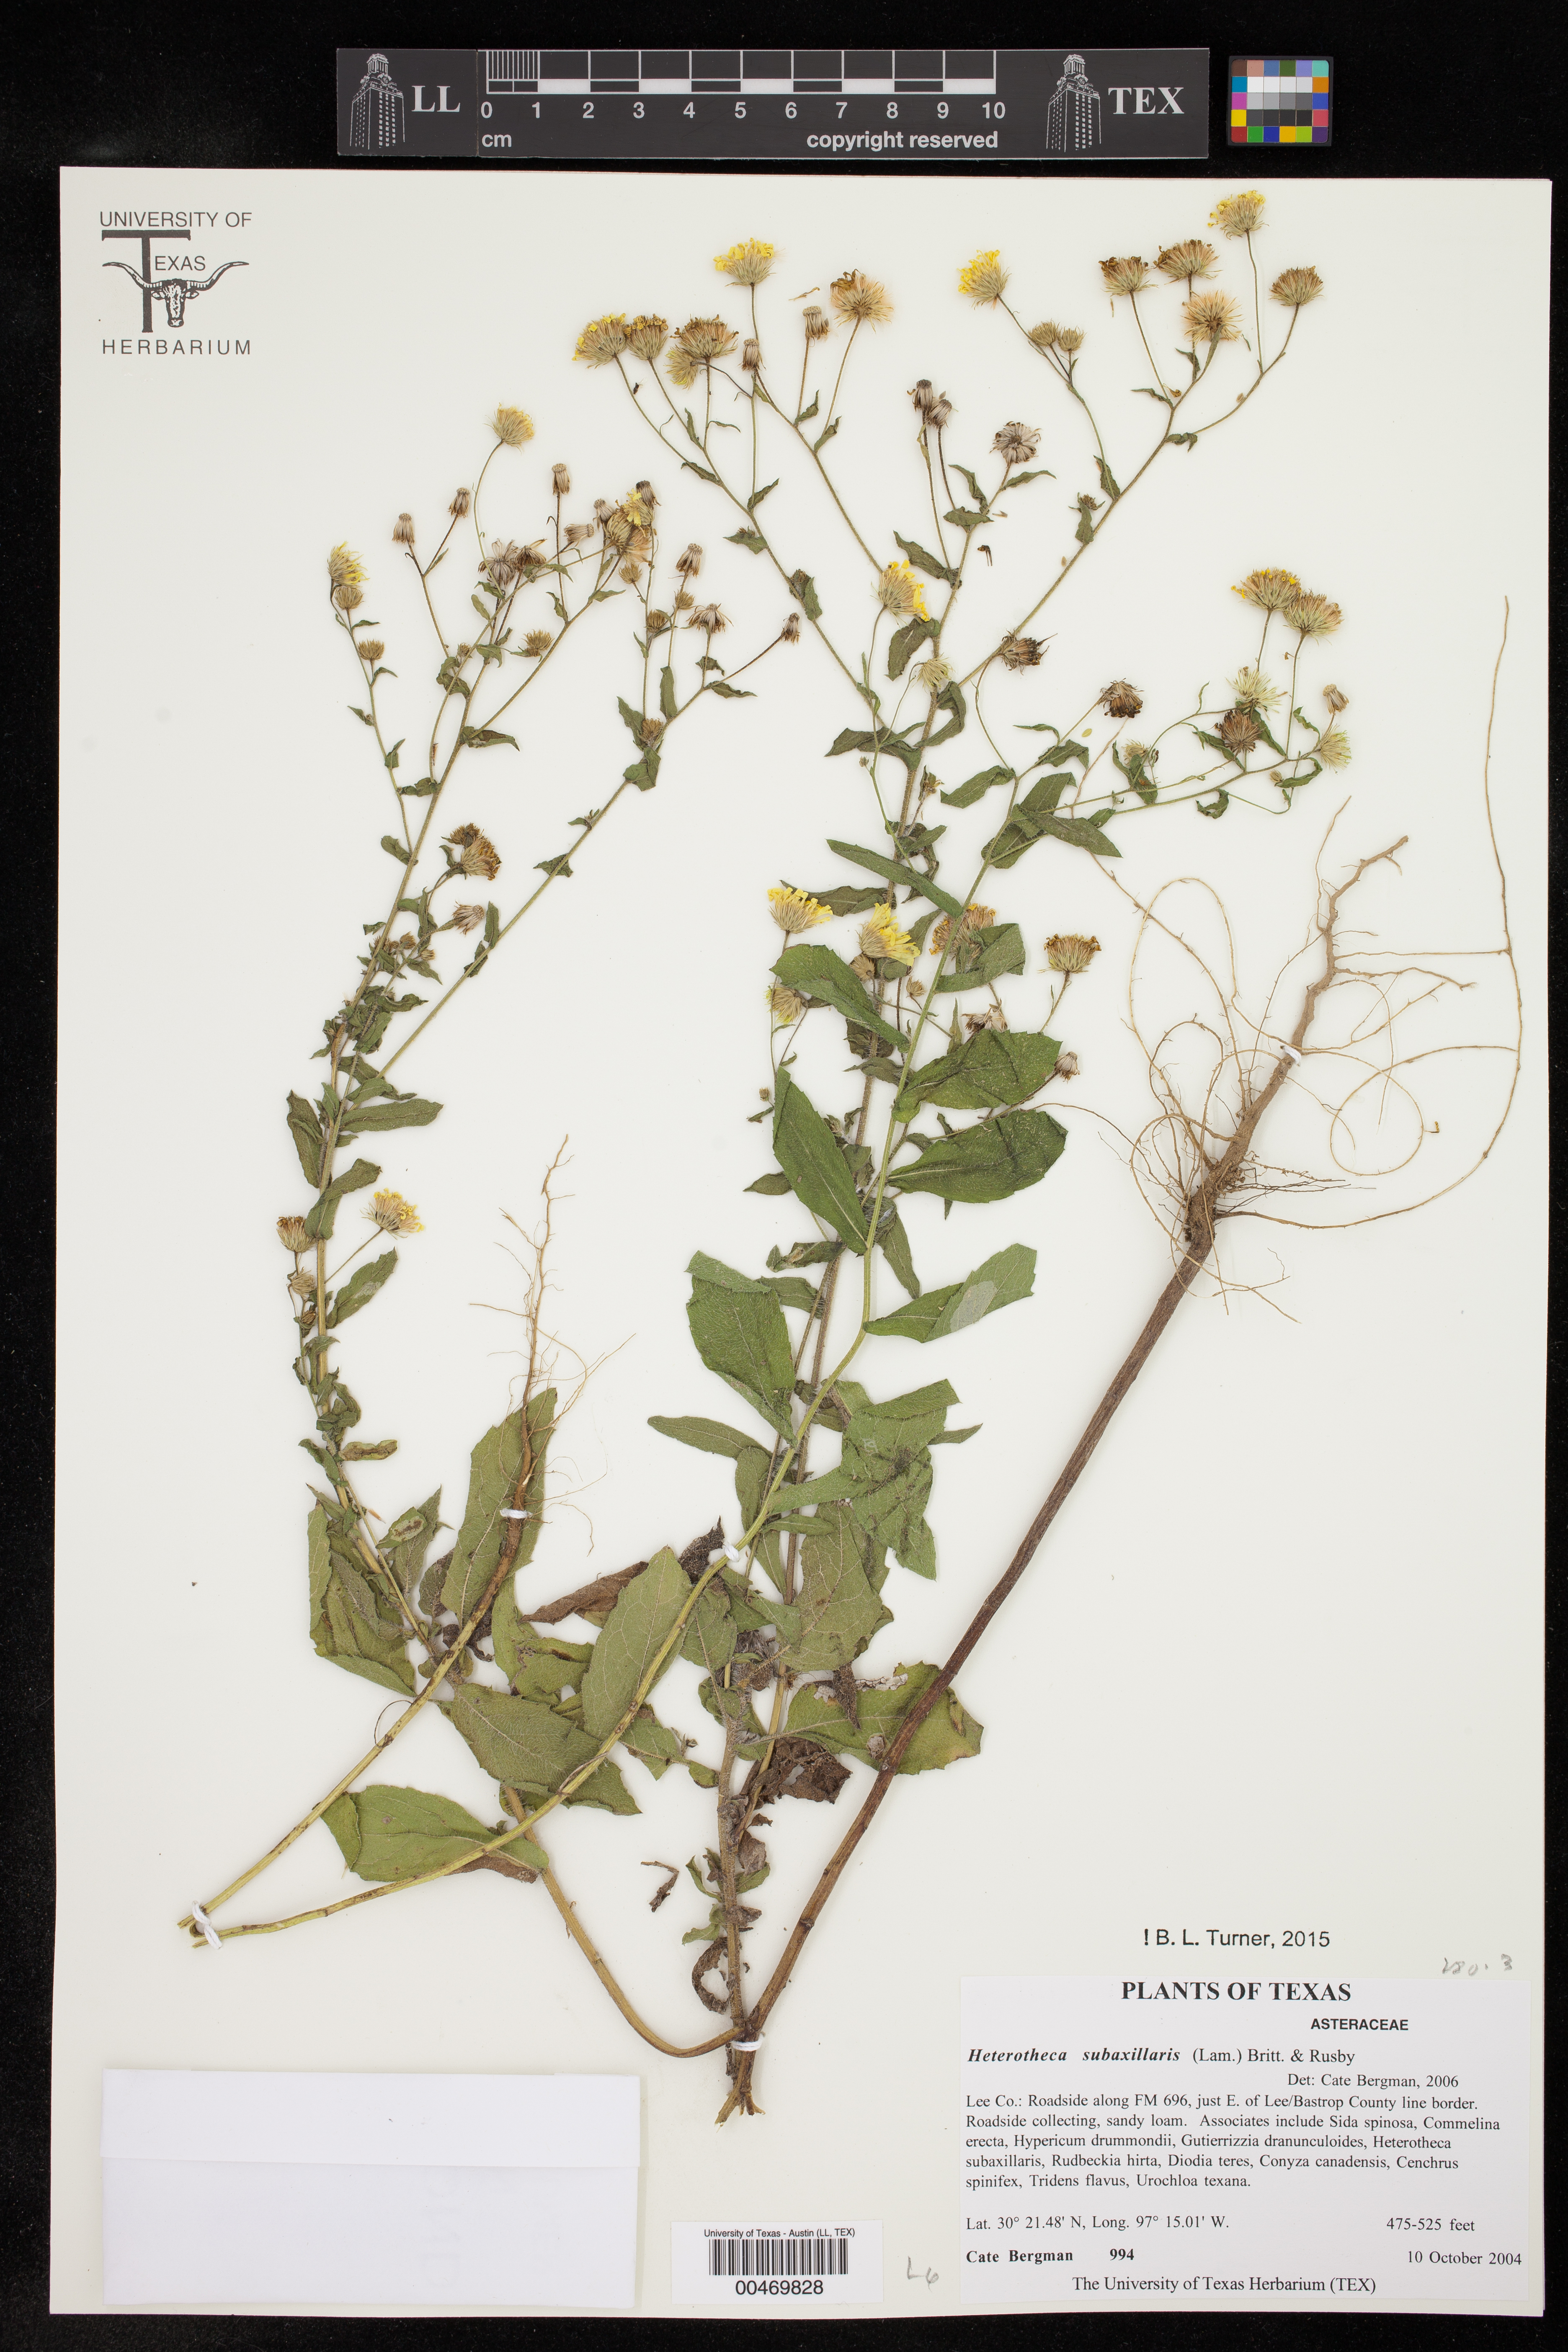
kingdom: Plantae
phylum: Tracheophyta
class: Magnoliopsida
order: Asterales
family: Asteraceae
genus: Heterotheca
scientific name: Heterotheca subaxillaris
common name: Camphorweed
